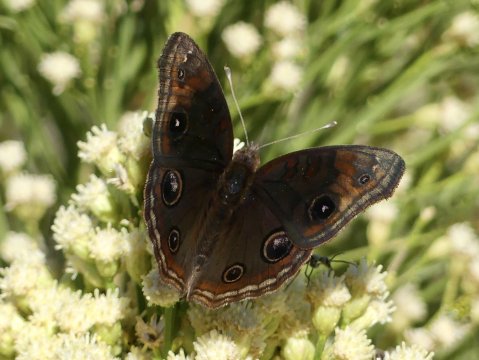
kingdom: Animalia
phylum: Arthropoda
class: Insecta
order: Lepidoptera
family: Nymphalidae
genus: Junonia
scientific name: Junonia lavinia
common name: Tropical Buckeye
